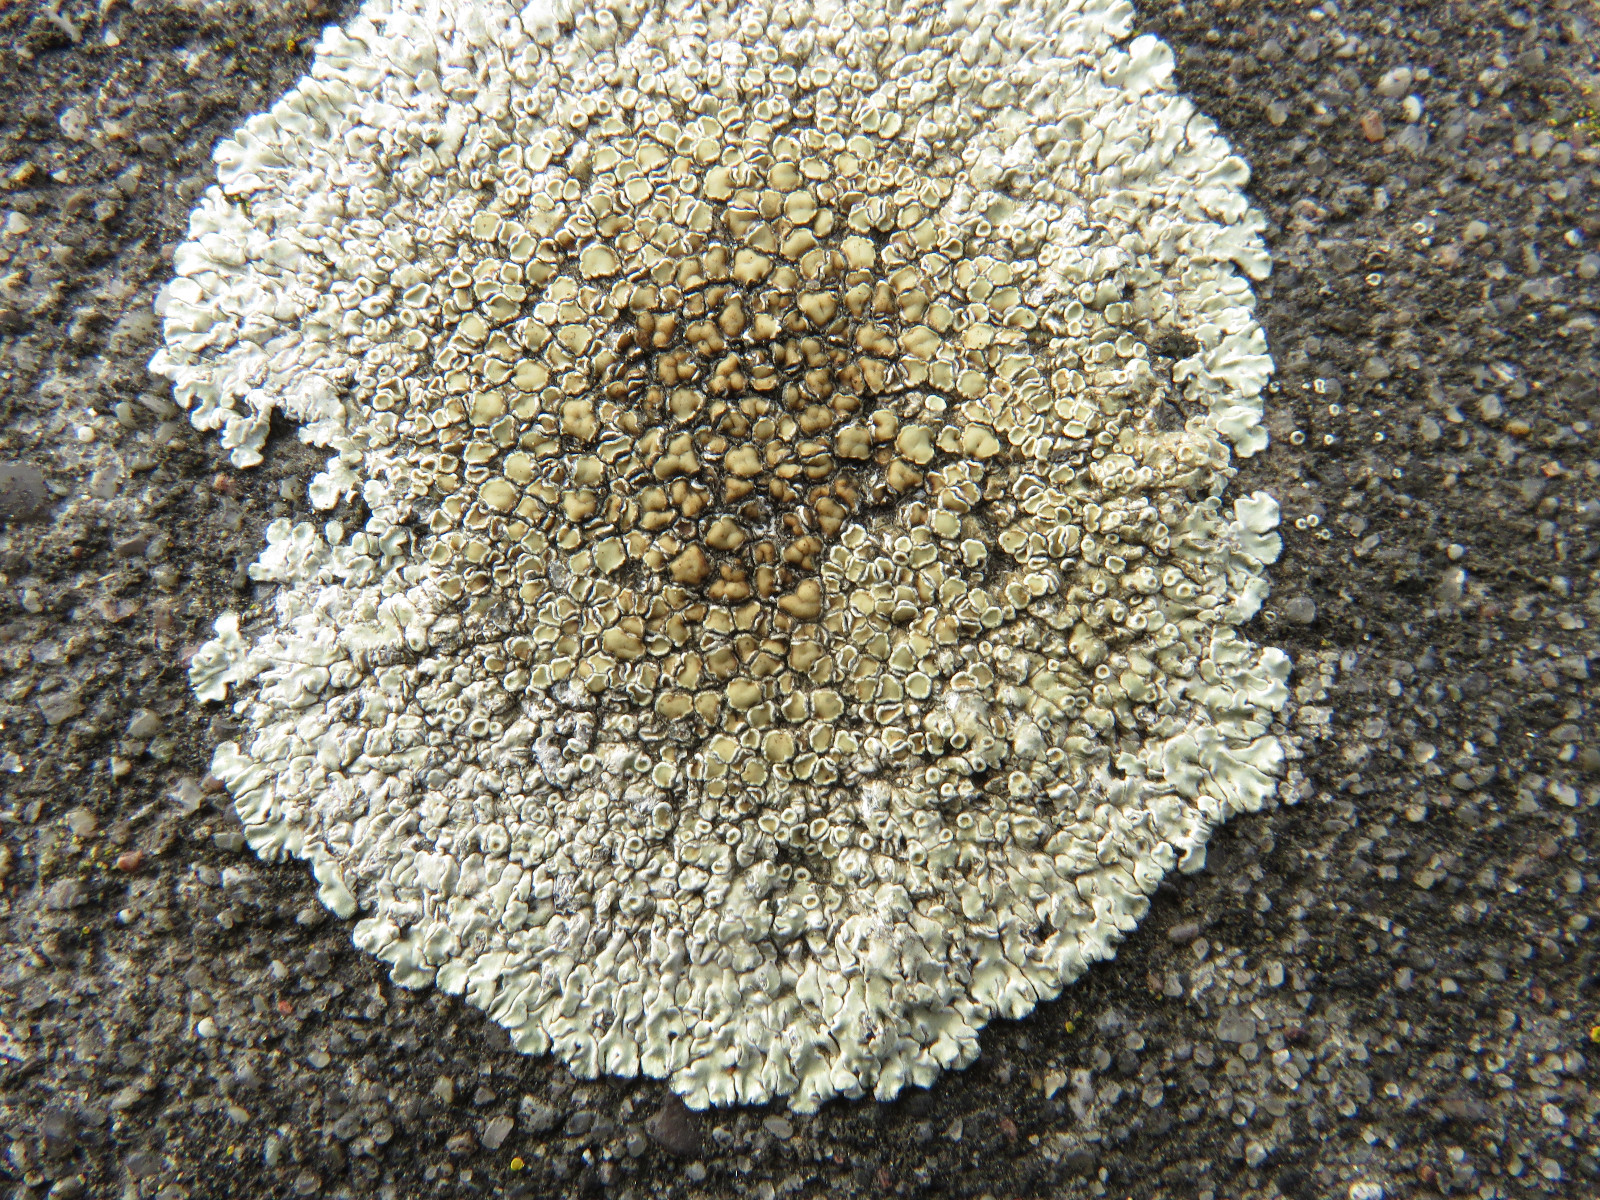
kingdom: Fungi
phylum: Ascomycota
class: Lecanoromycetes
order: Lecanorales
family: Lecanoraceae
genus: Protoparmeliopsis
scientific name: Protoparmeliopsis muralis
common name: randfliget kantskivelav
